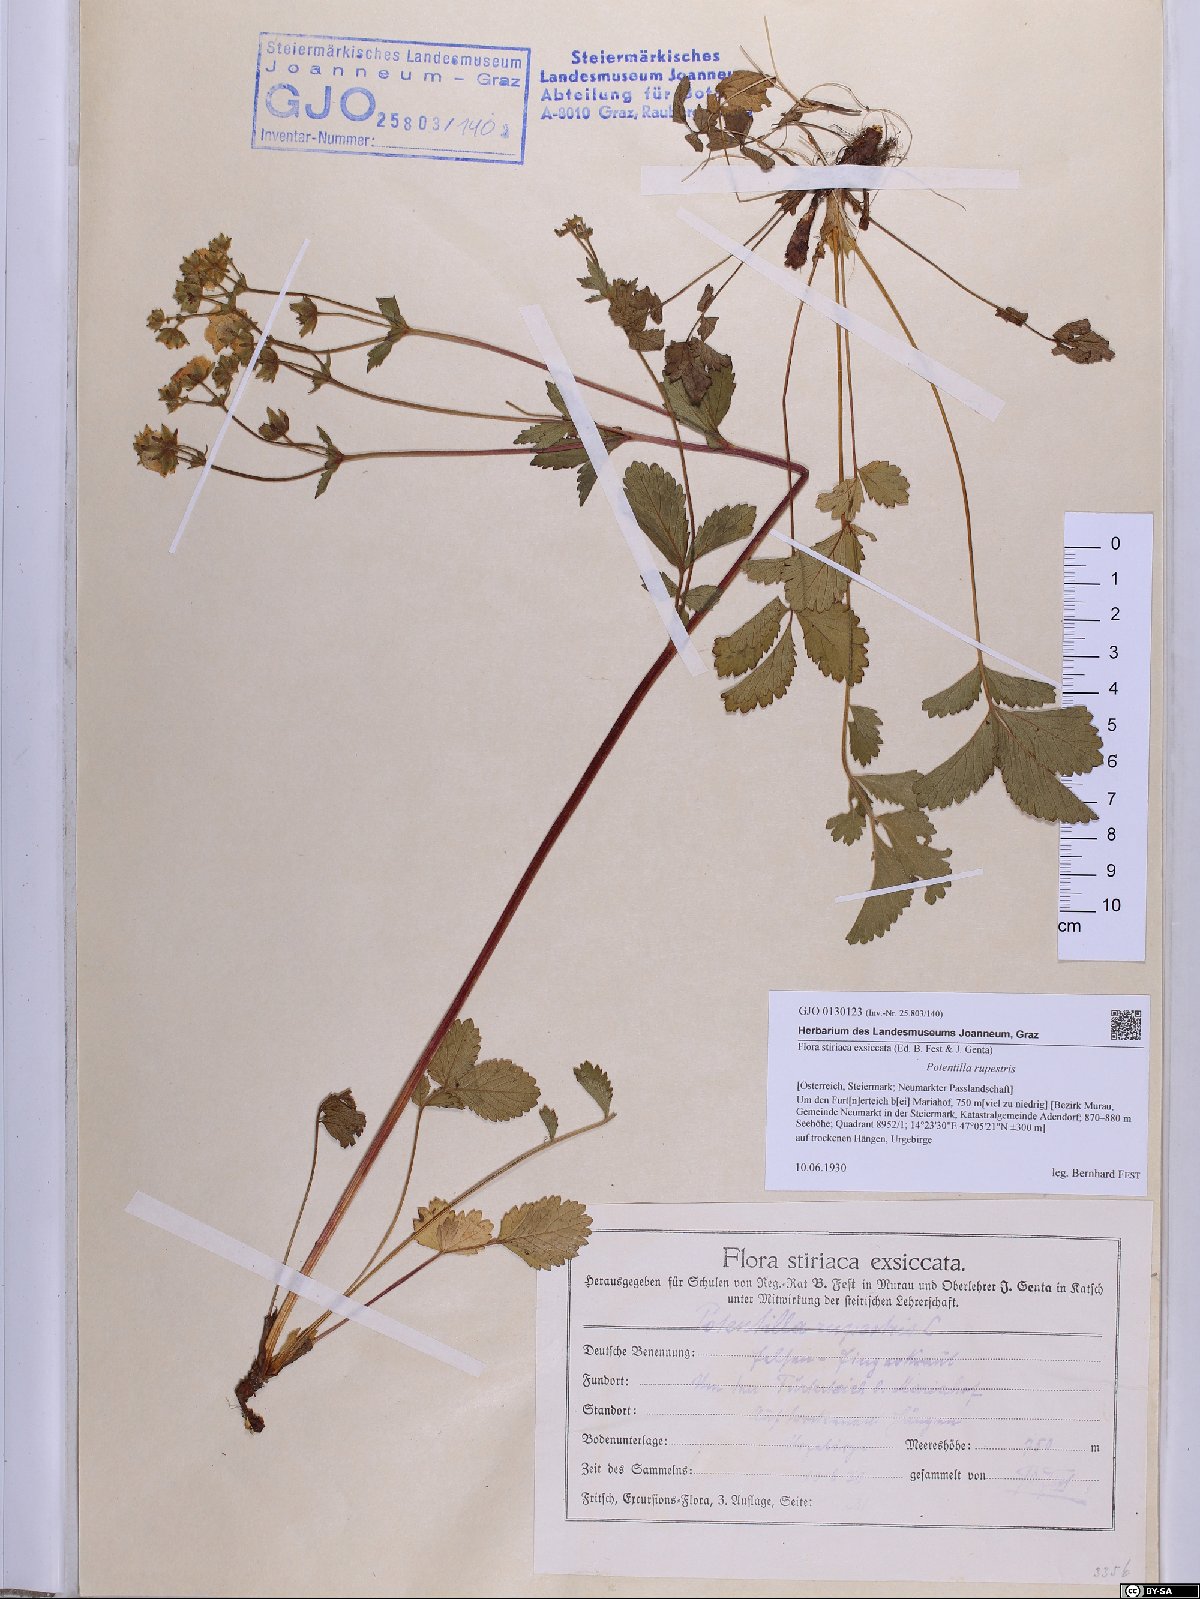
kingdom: Plantae
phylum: Tracheophyta
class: Magnoliopsida
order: Rosales
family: Rosaceae
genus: Drymocallis
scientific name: Drymocallis rupestris
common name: Rock cinquefoil
